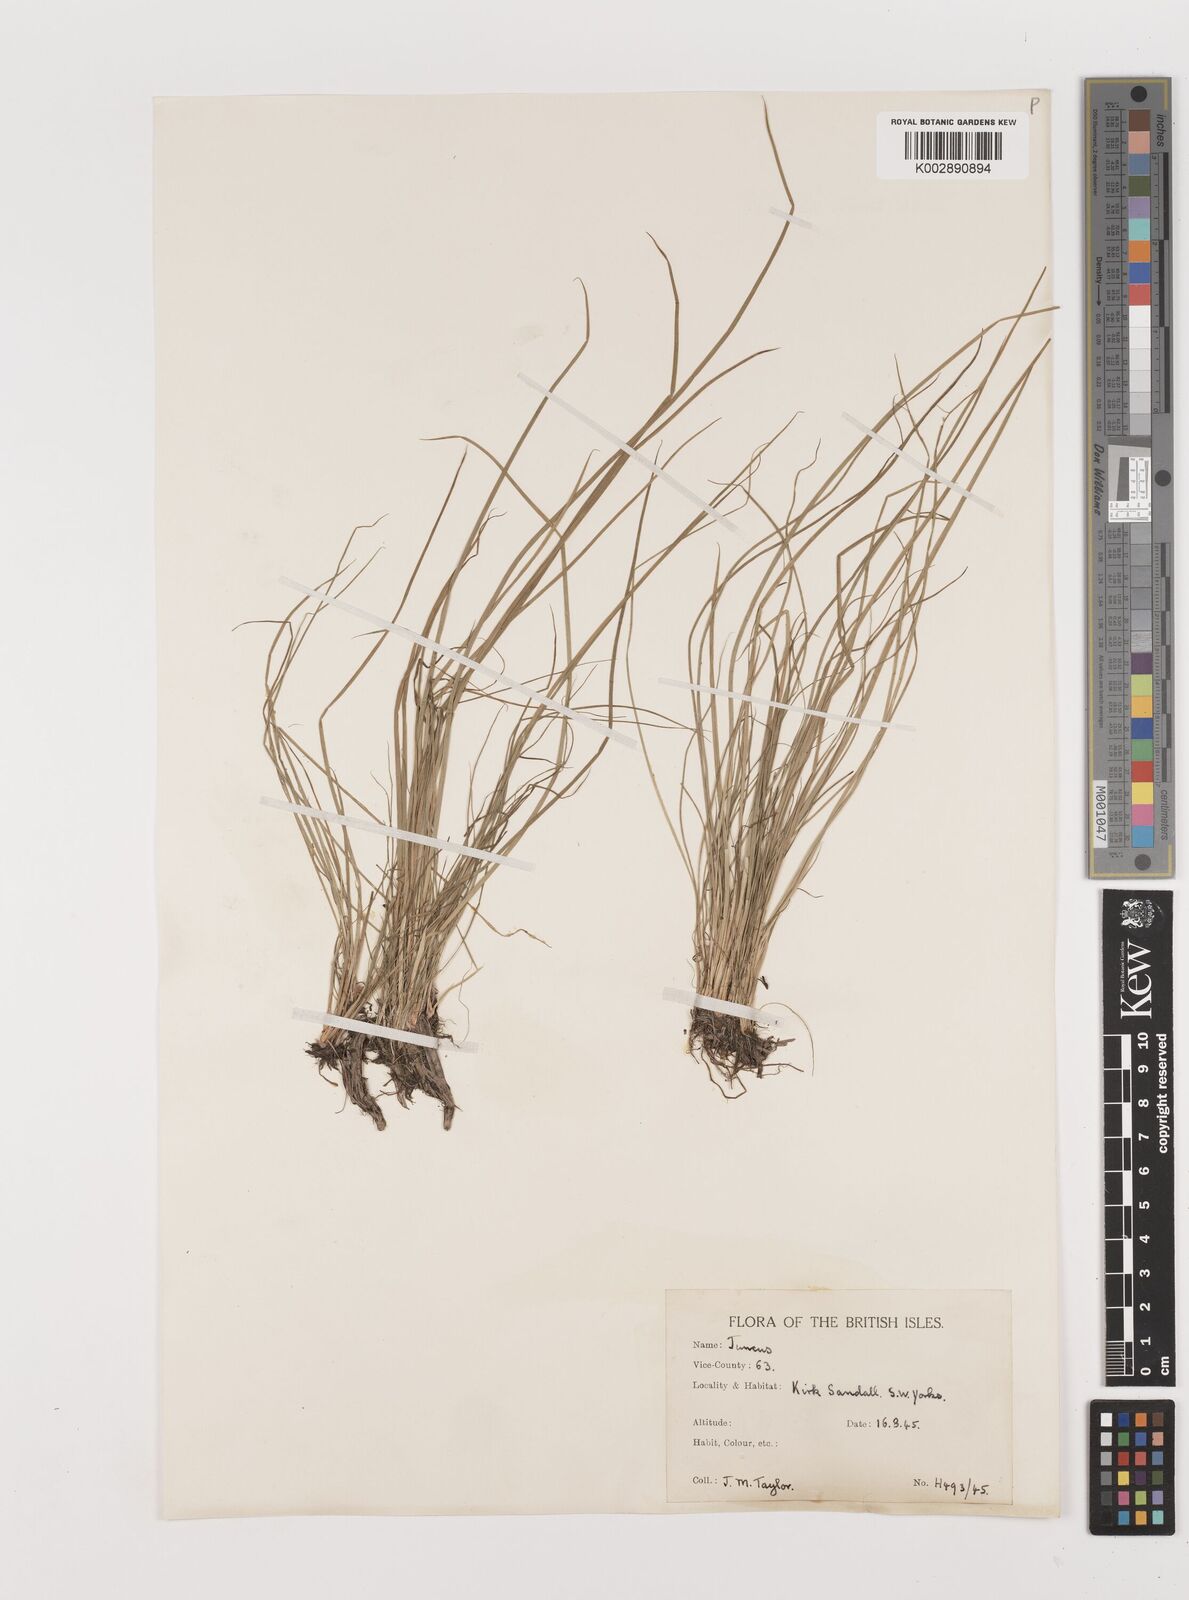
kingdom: Plantae
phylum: Tracheophyta
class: Liliopsida
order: Poales
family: Juncaceae
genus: Juncus
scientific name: Juncus
